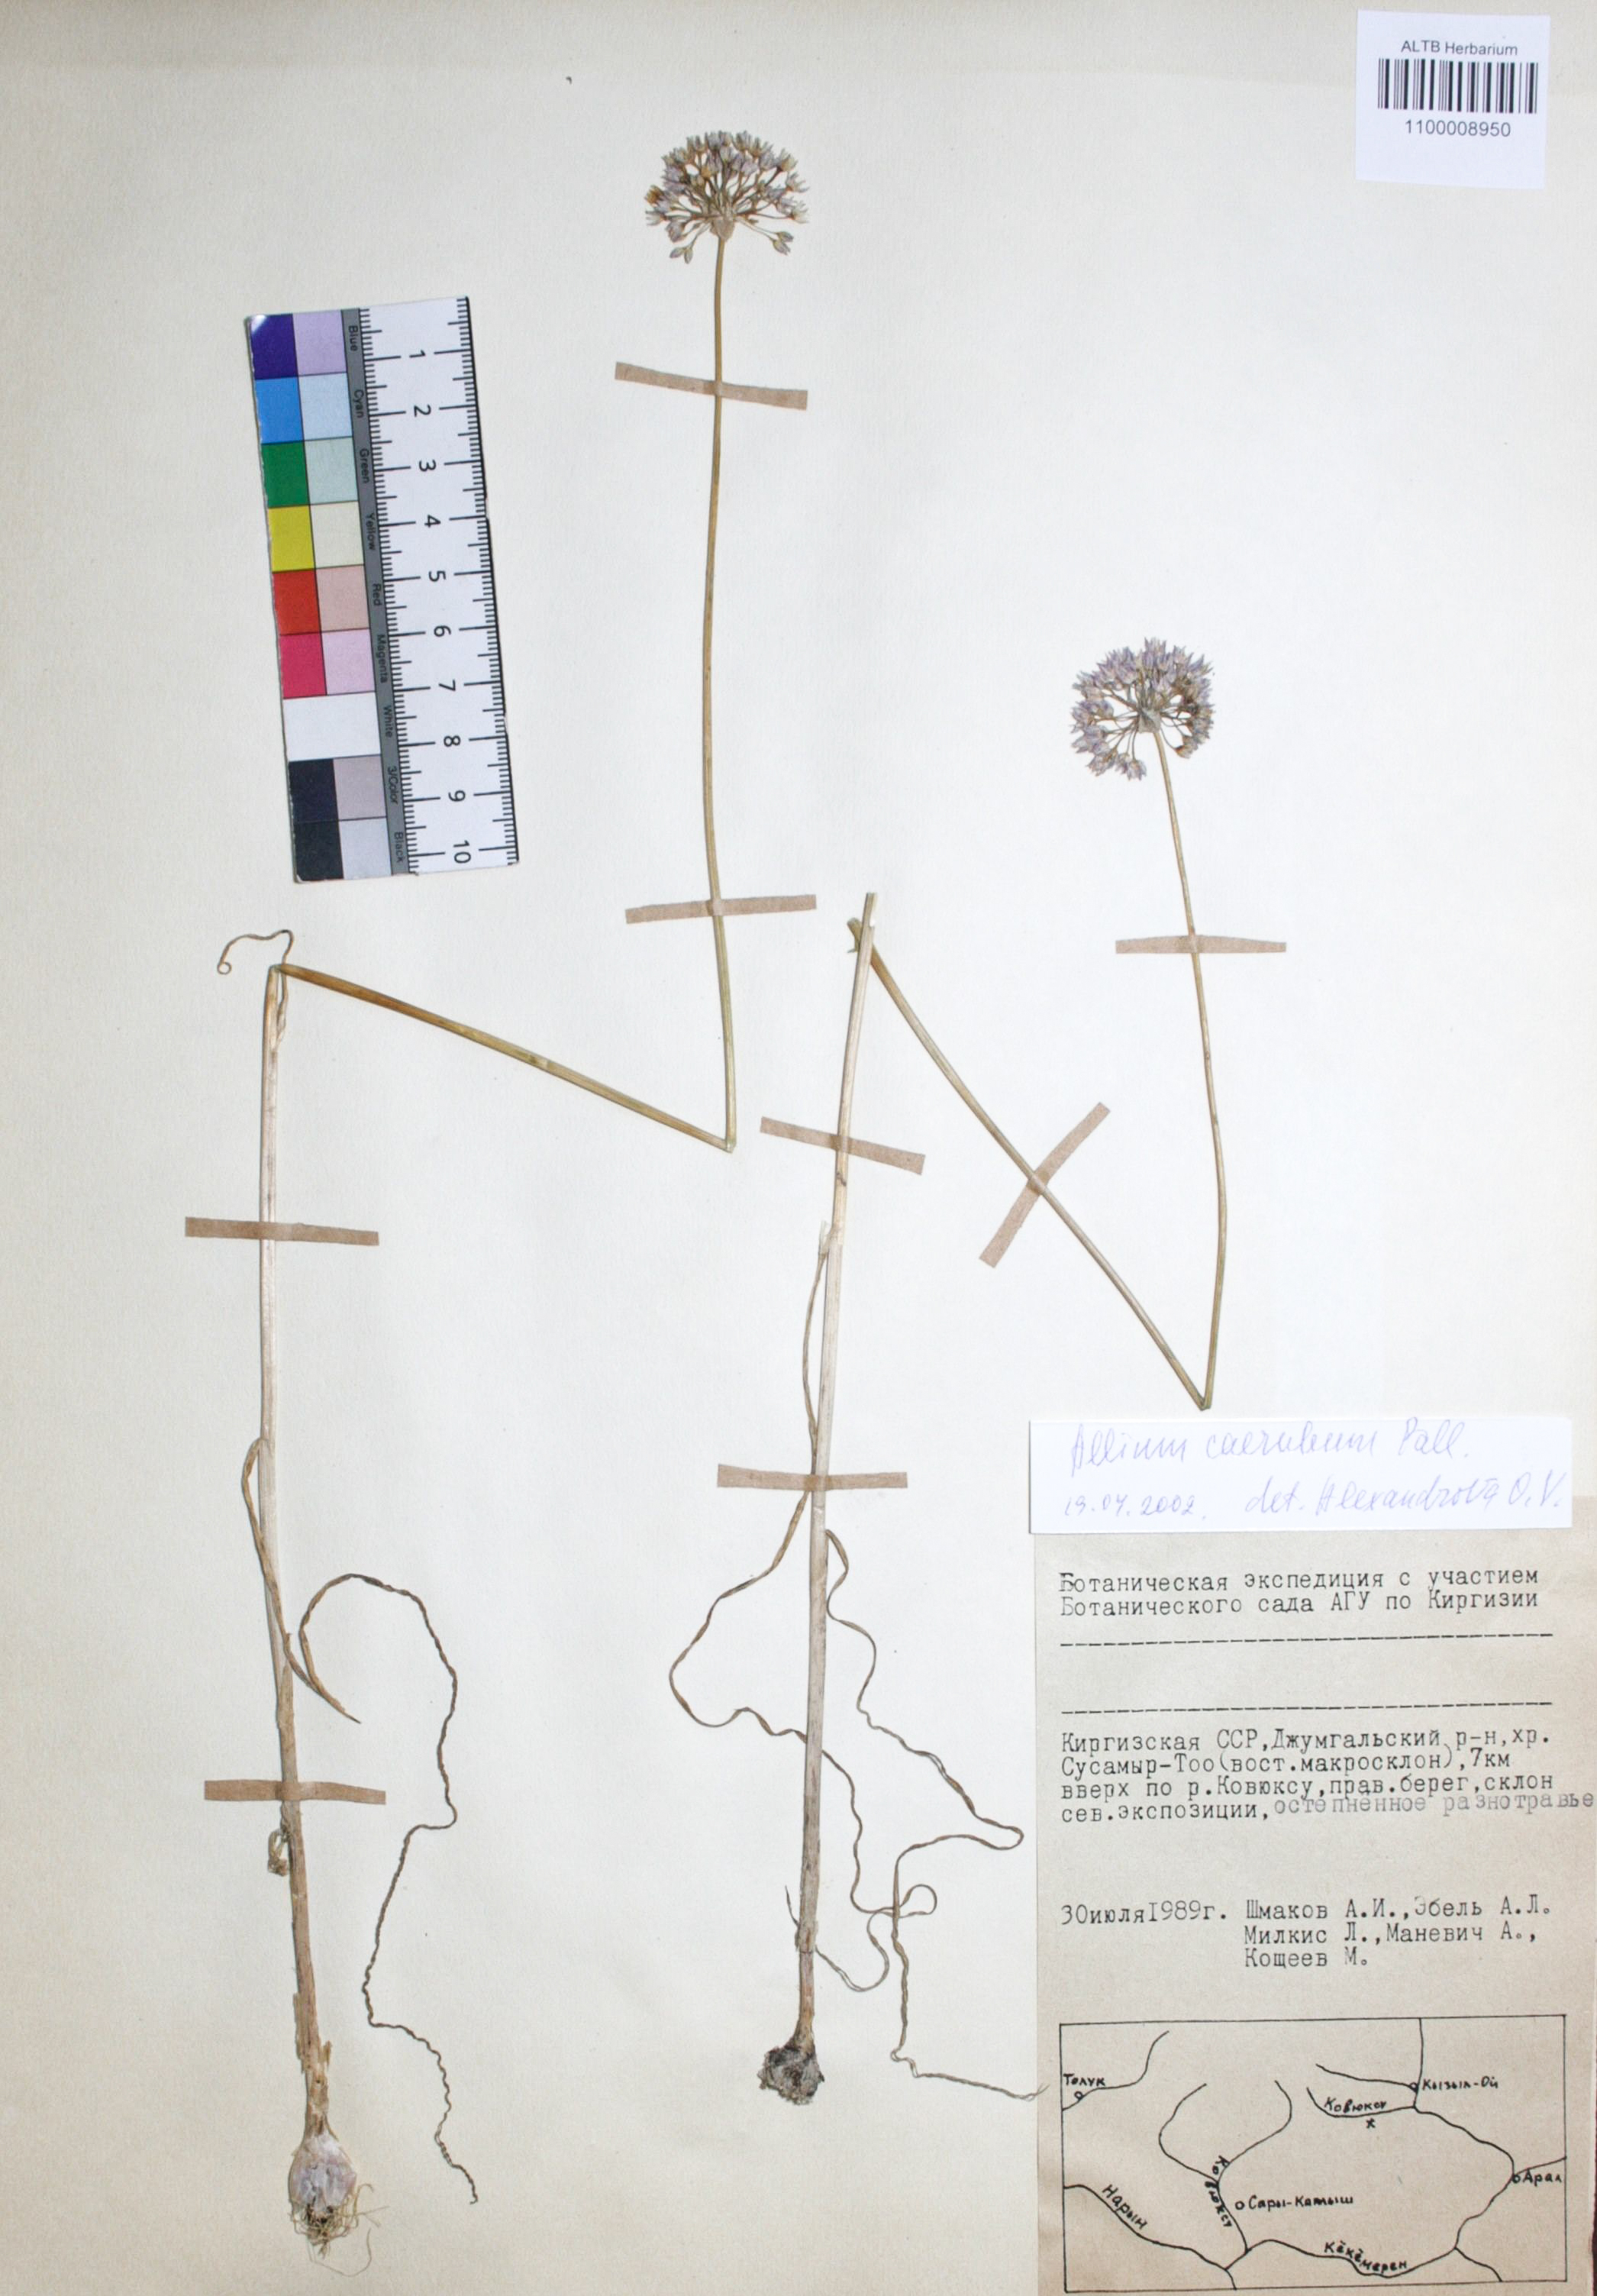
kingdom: Plantae
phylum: Tracheophyta
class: Liliopsida
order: Asparagales
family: Amaryllidaceae
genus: Allium
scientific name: Allium caeruleum
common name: Blue-of-the-heavens
